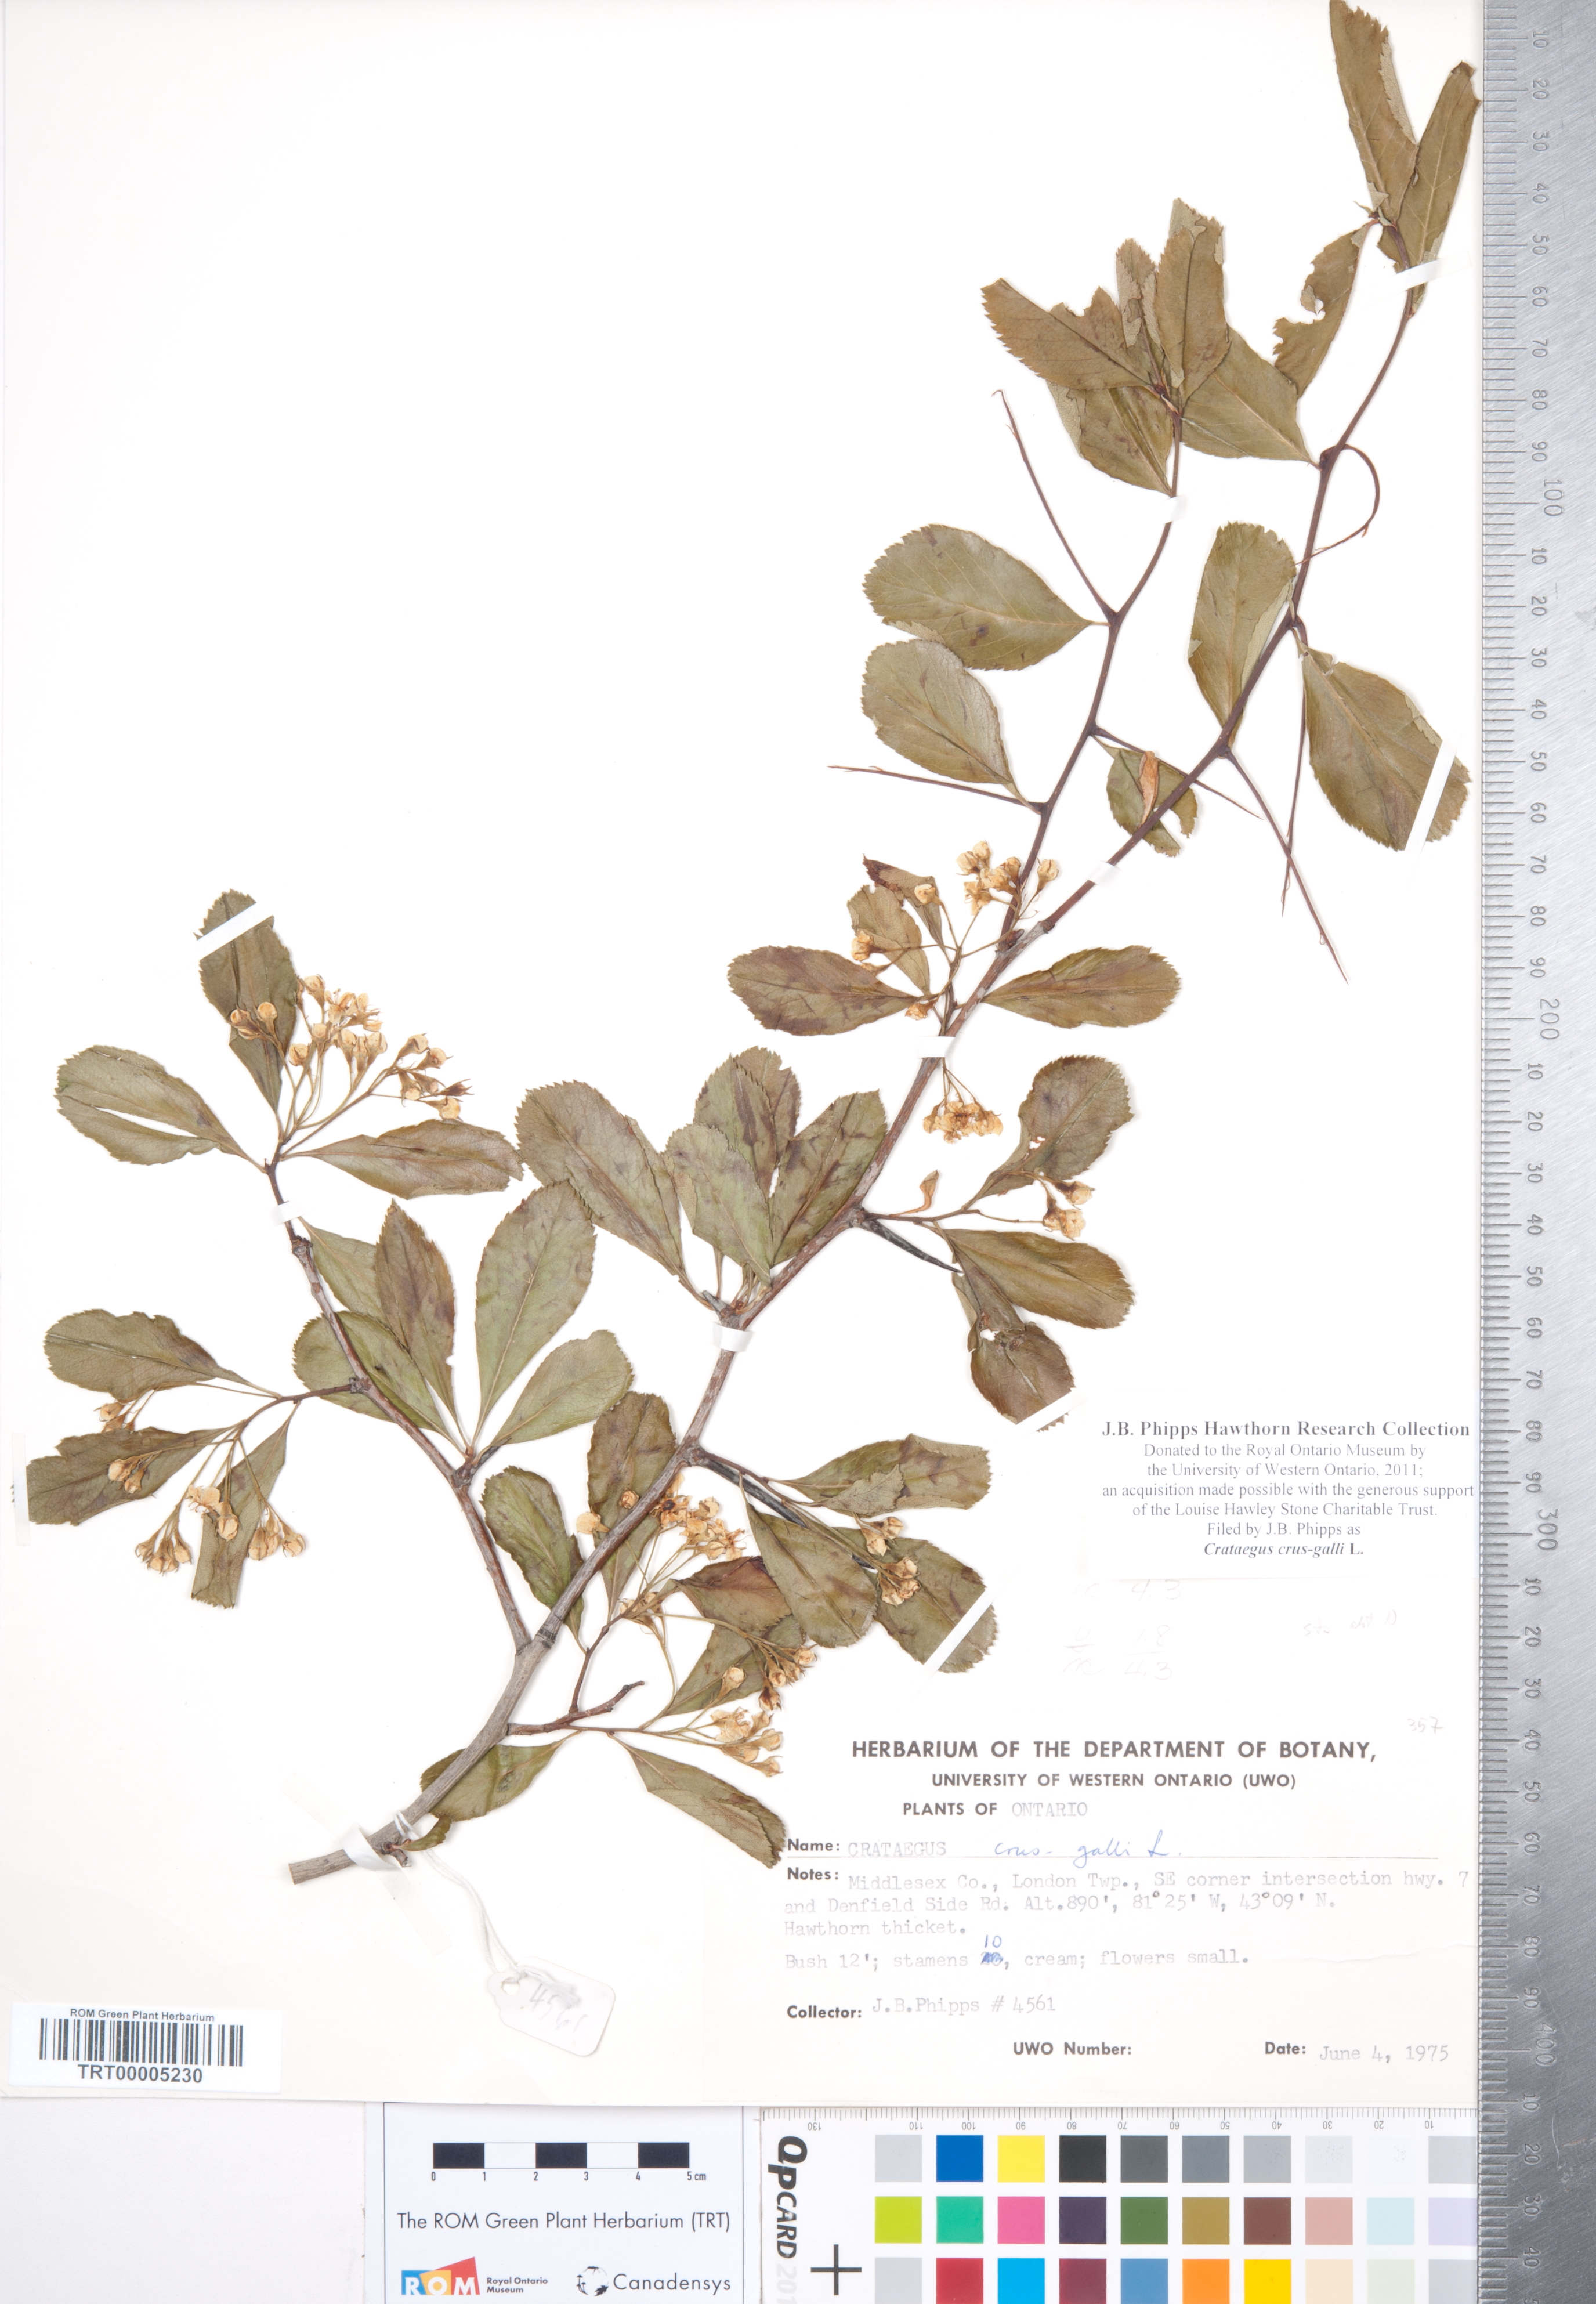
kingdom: Plantae
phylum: Tracheophyta
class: Magnoliopsida
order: Rosales
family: Rosaceae
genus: Crataegus
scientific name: Crataegus crus-galli
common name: Cockspurthorn
